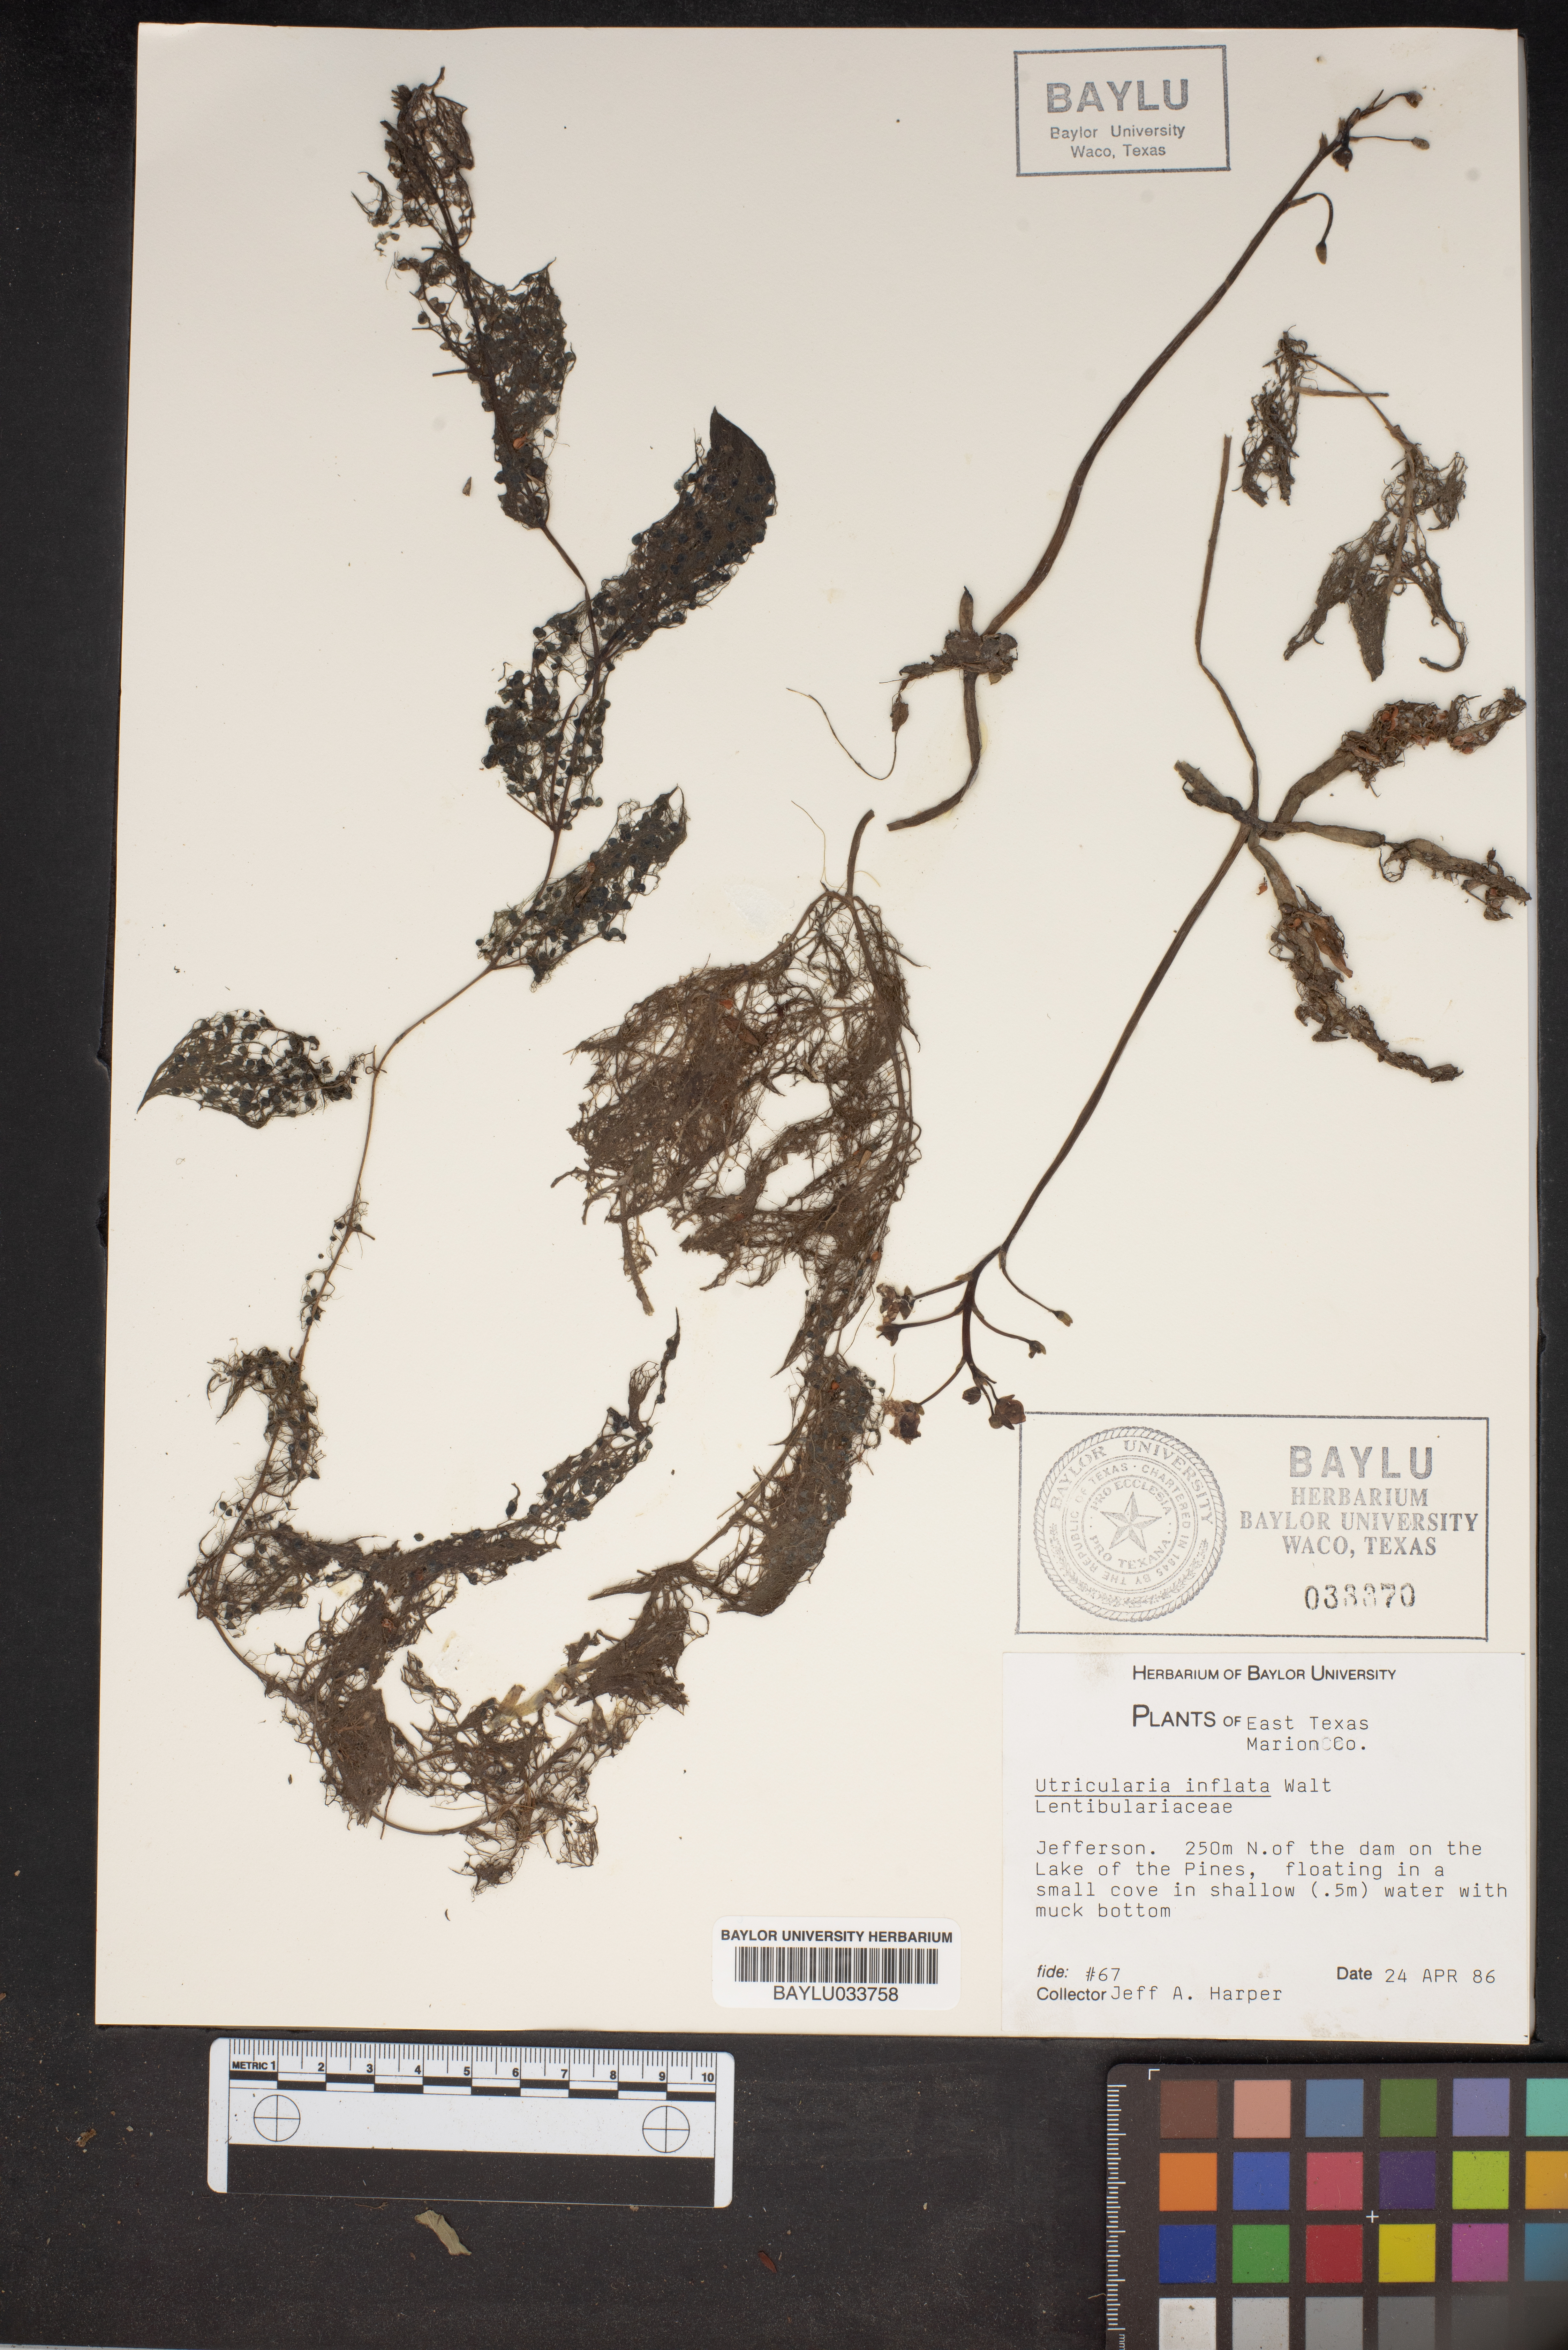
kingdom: Plantae
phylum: Tracheophyta
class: Magnoliopsida
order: Lamiales
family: Lentibulariaceae
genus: Utricularia
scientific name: Utricularia inflata
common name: Floating bladderwort
